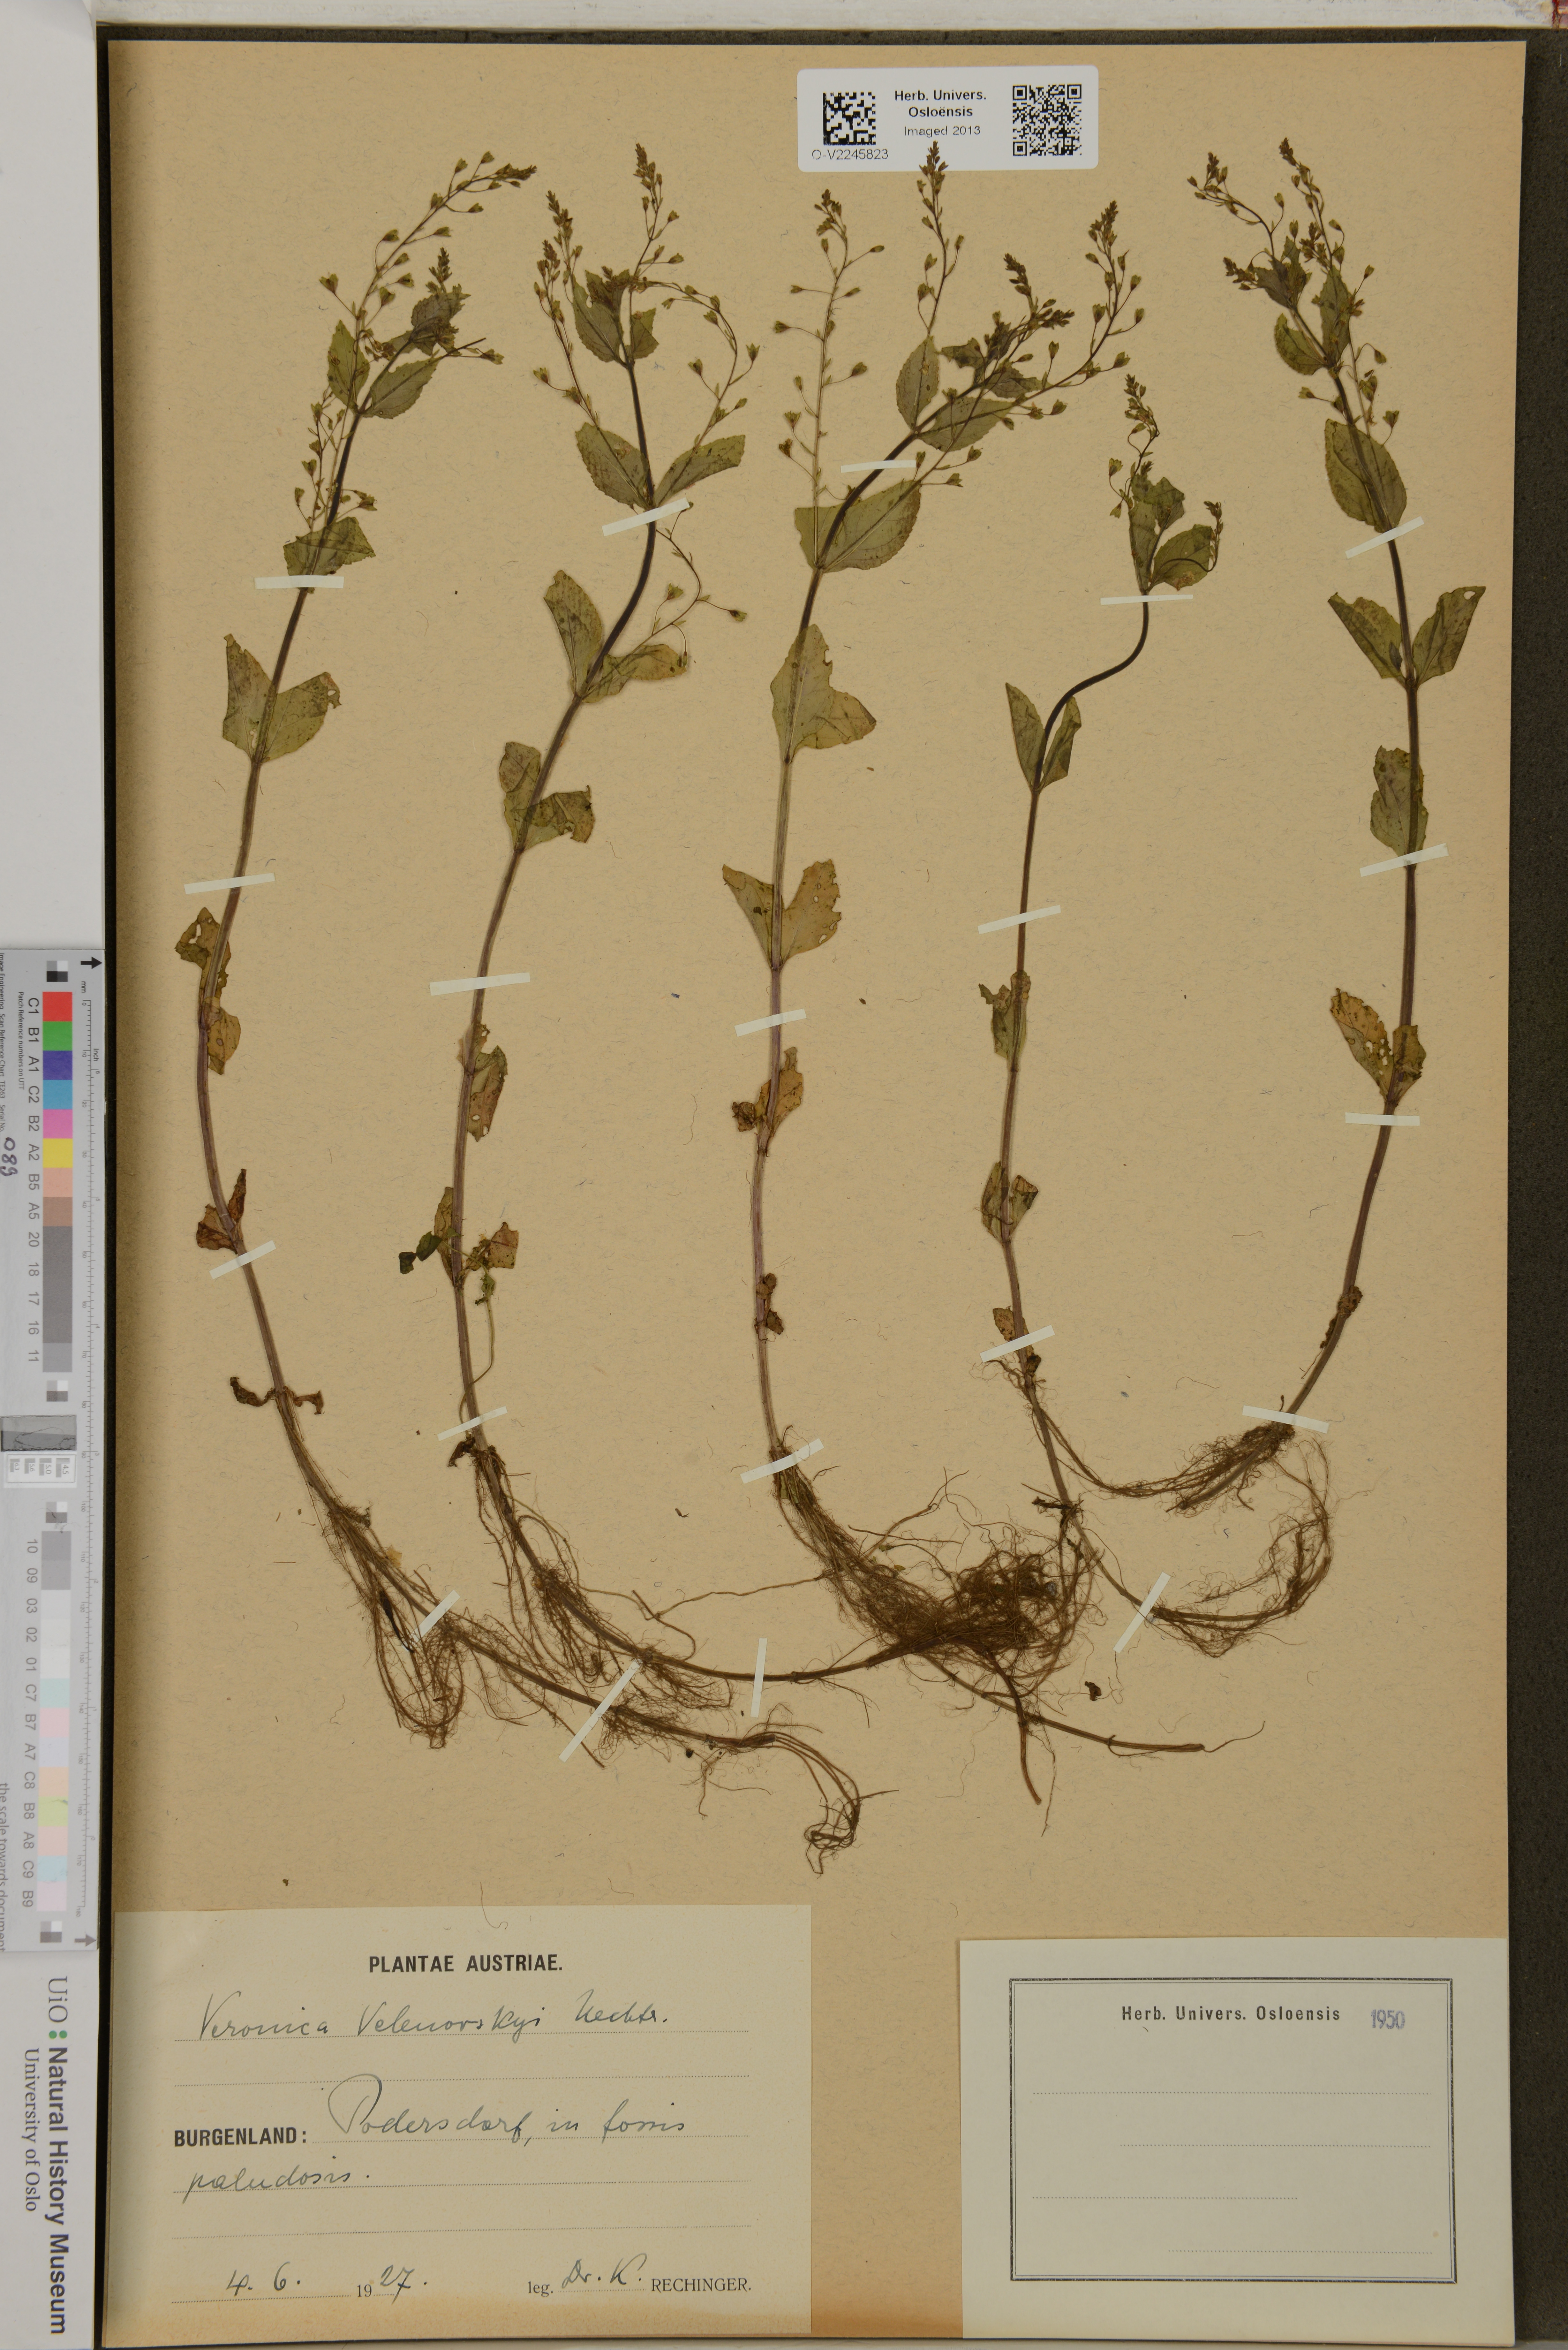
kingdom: Plantae
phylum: Tracheophyta
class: Magnoliopsida
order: Lamiales
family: Plantaginaceae
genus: Veronica
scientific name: Veronica scardica
